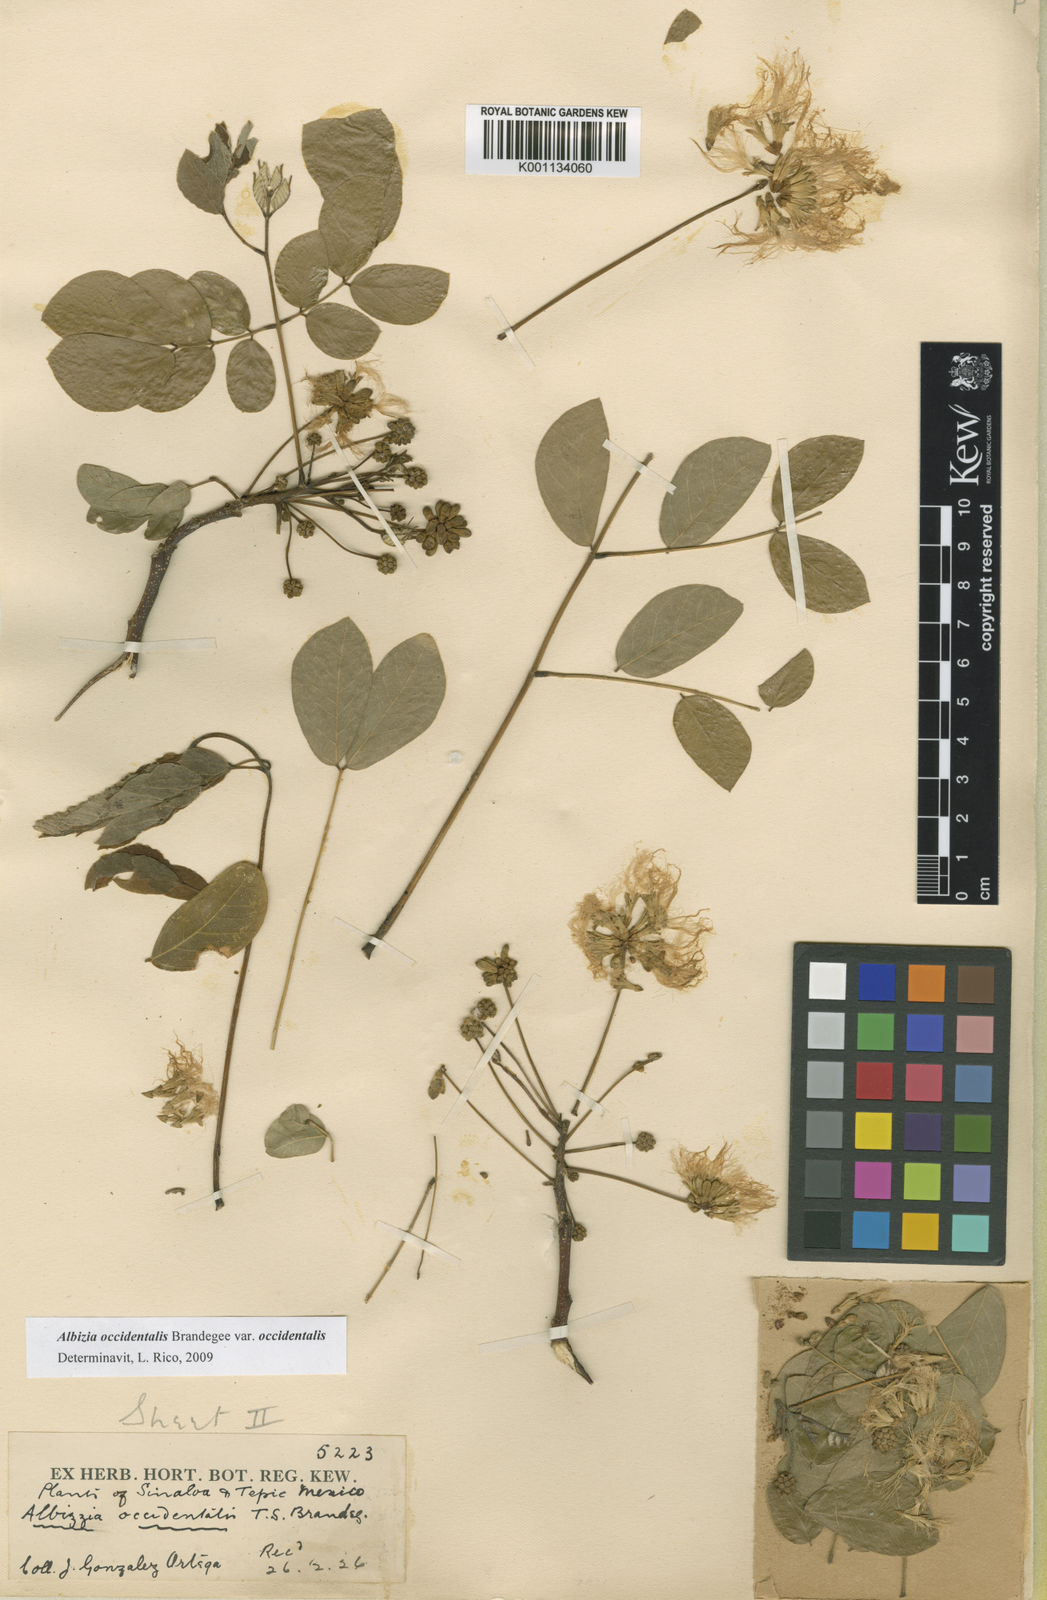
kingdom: Plantae
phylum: Tracheophyta
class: Magnoliopsida
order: Fabales
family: Fabaceae
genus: Albizia
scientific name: Albizia occidentalis
